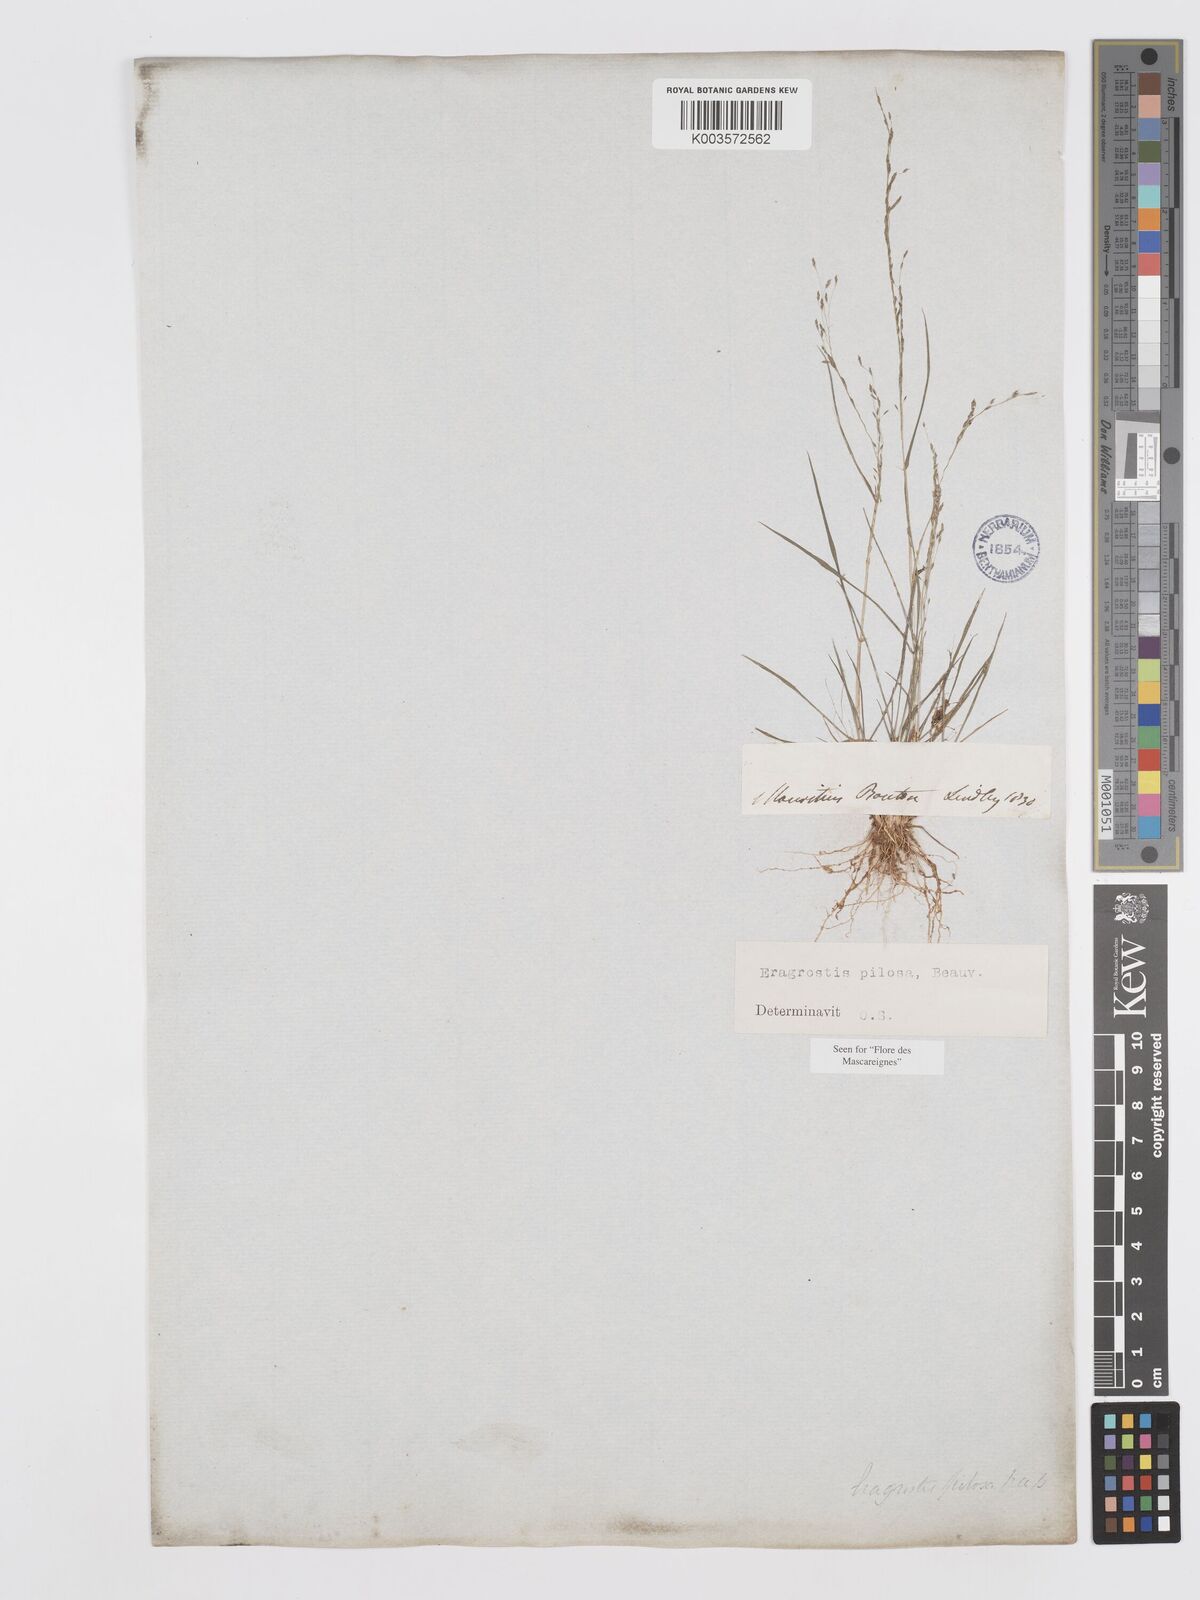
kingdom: Plantae
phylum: Tracheophyta
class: Liliopsida
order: Poales
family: Poaceae
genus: Eragrostis
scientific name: Eragrostis pilosa
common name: Indian lovegrass
